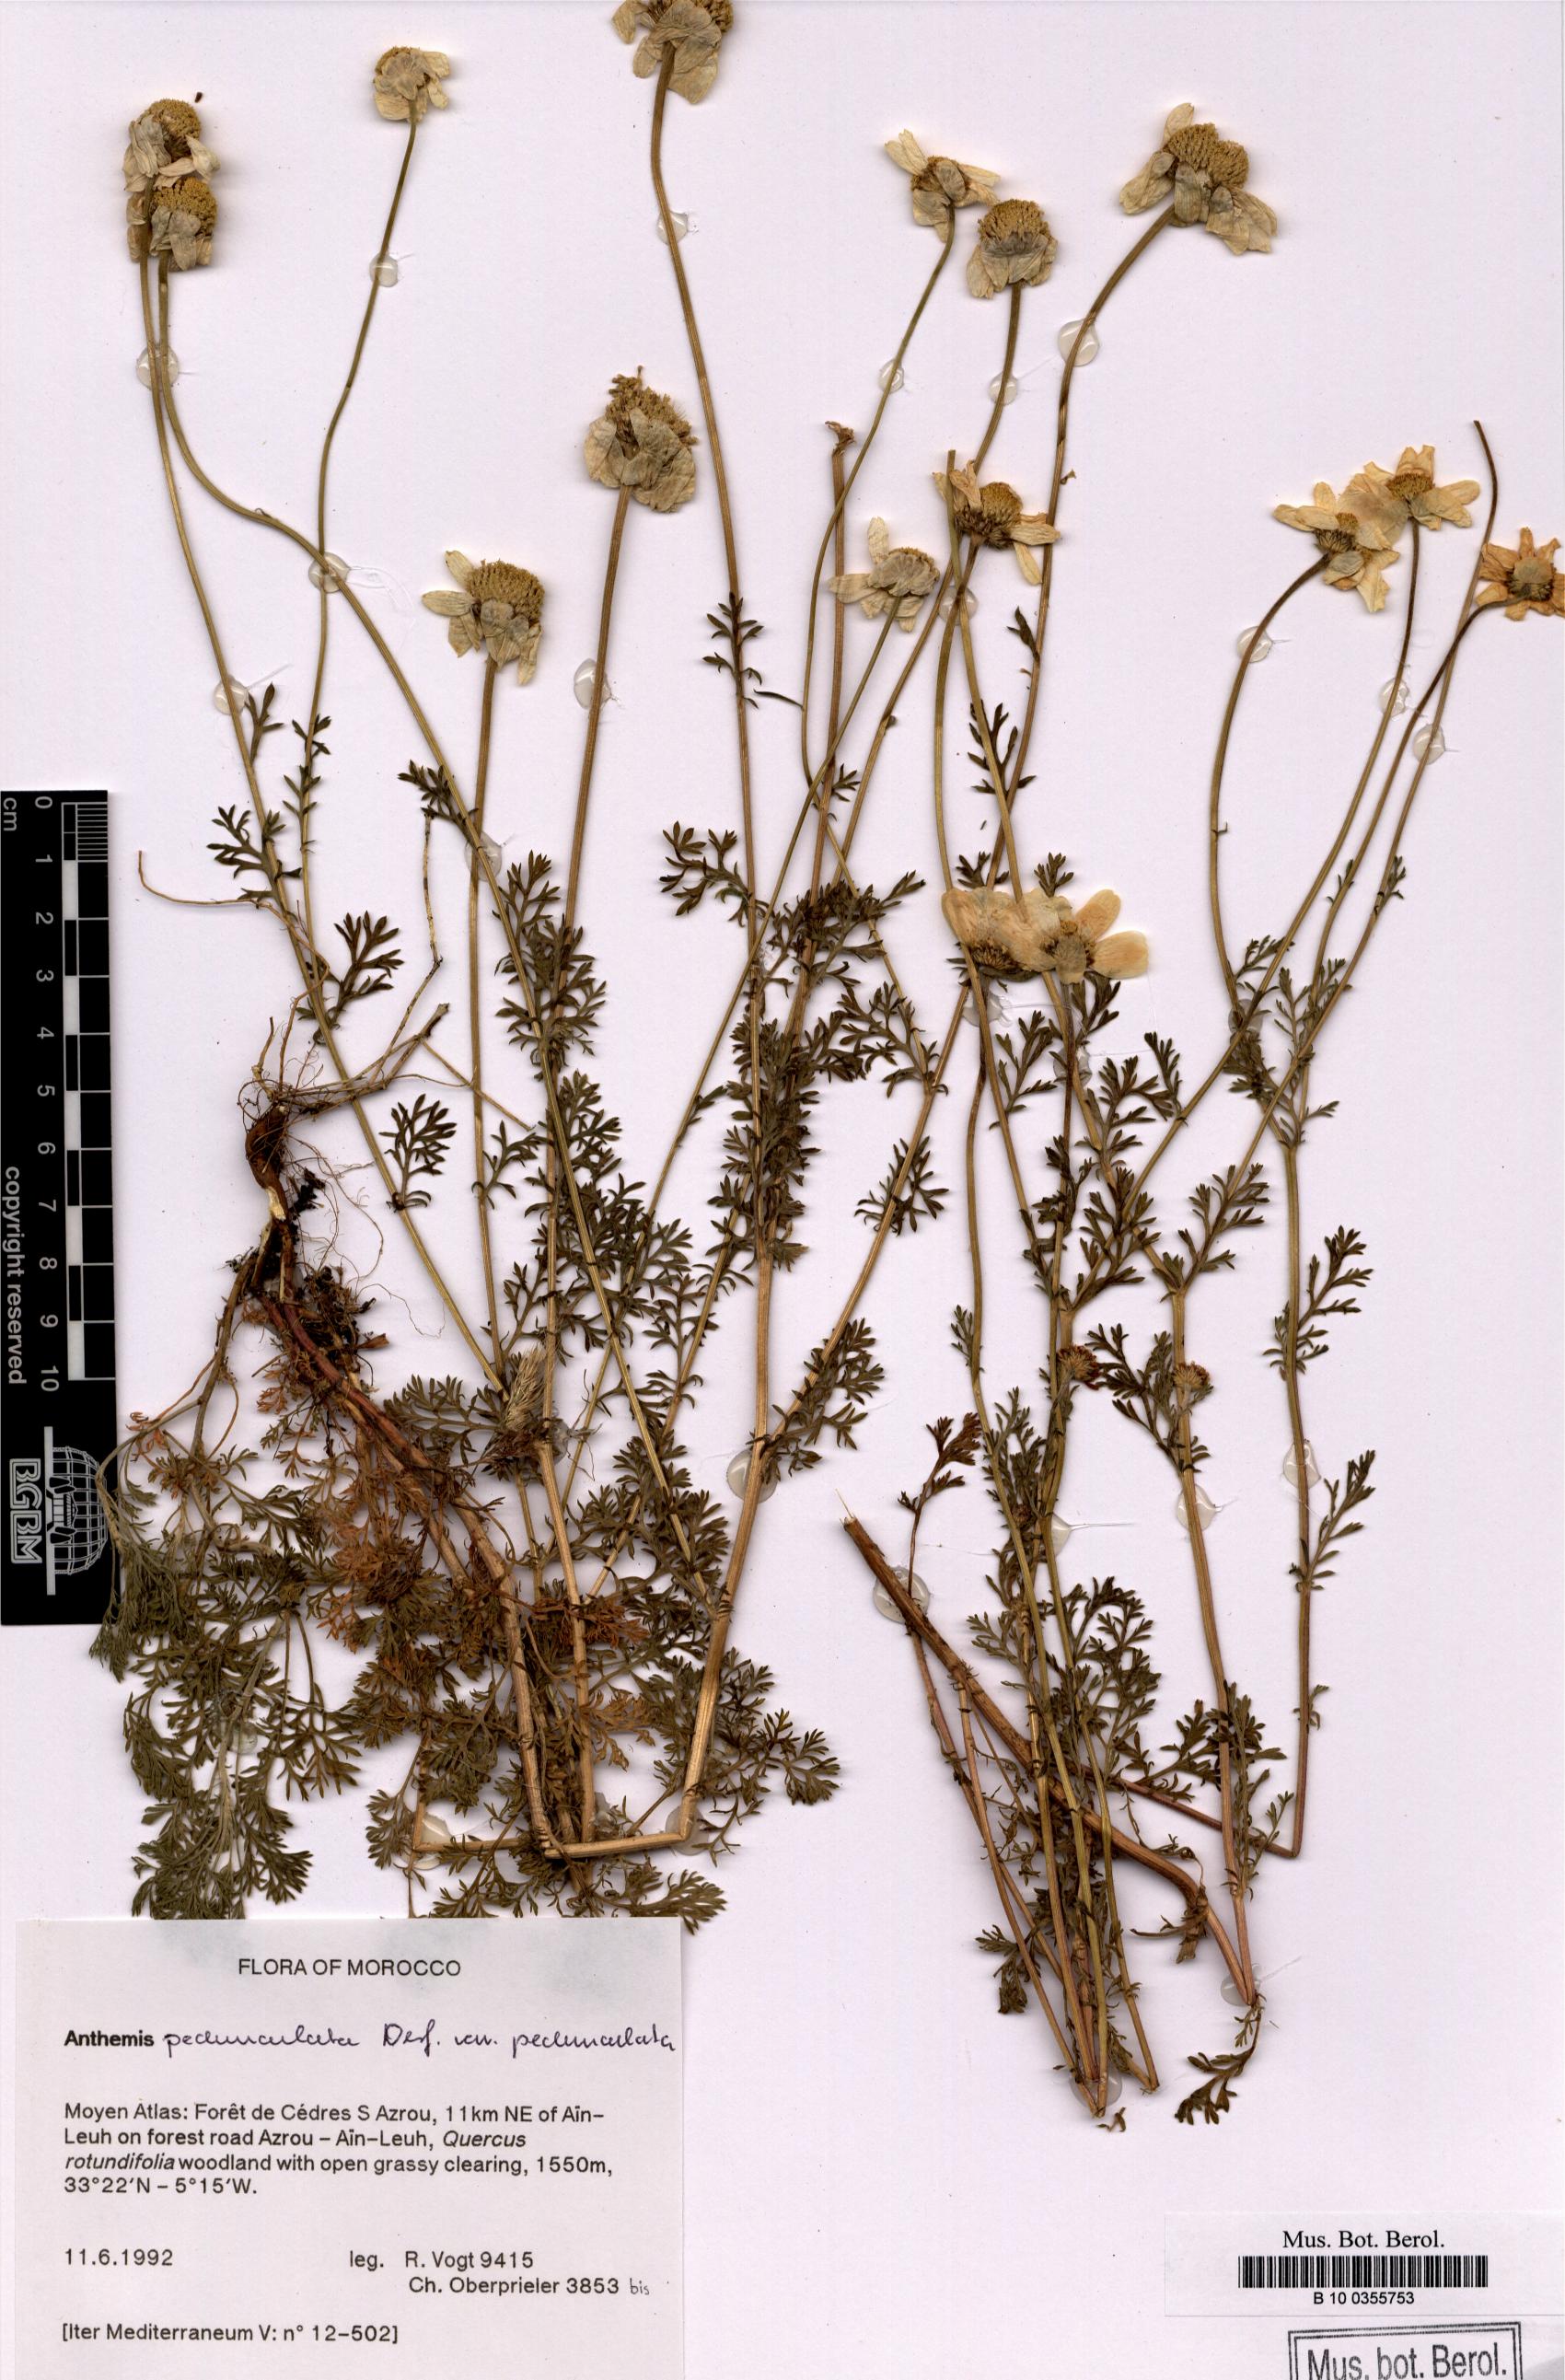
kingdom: Plantae
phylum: Tracheophyta
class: Magnoliopsida
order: Asterales
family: Asteraceae
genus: Anthemis
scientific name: Anthemis pedunculata
